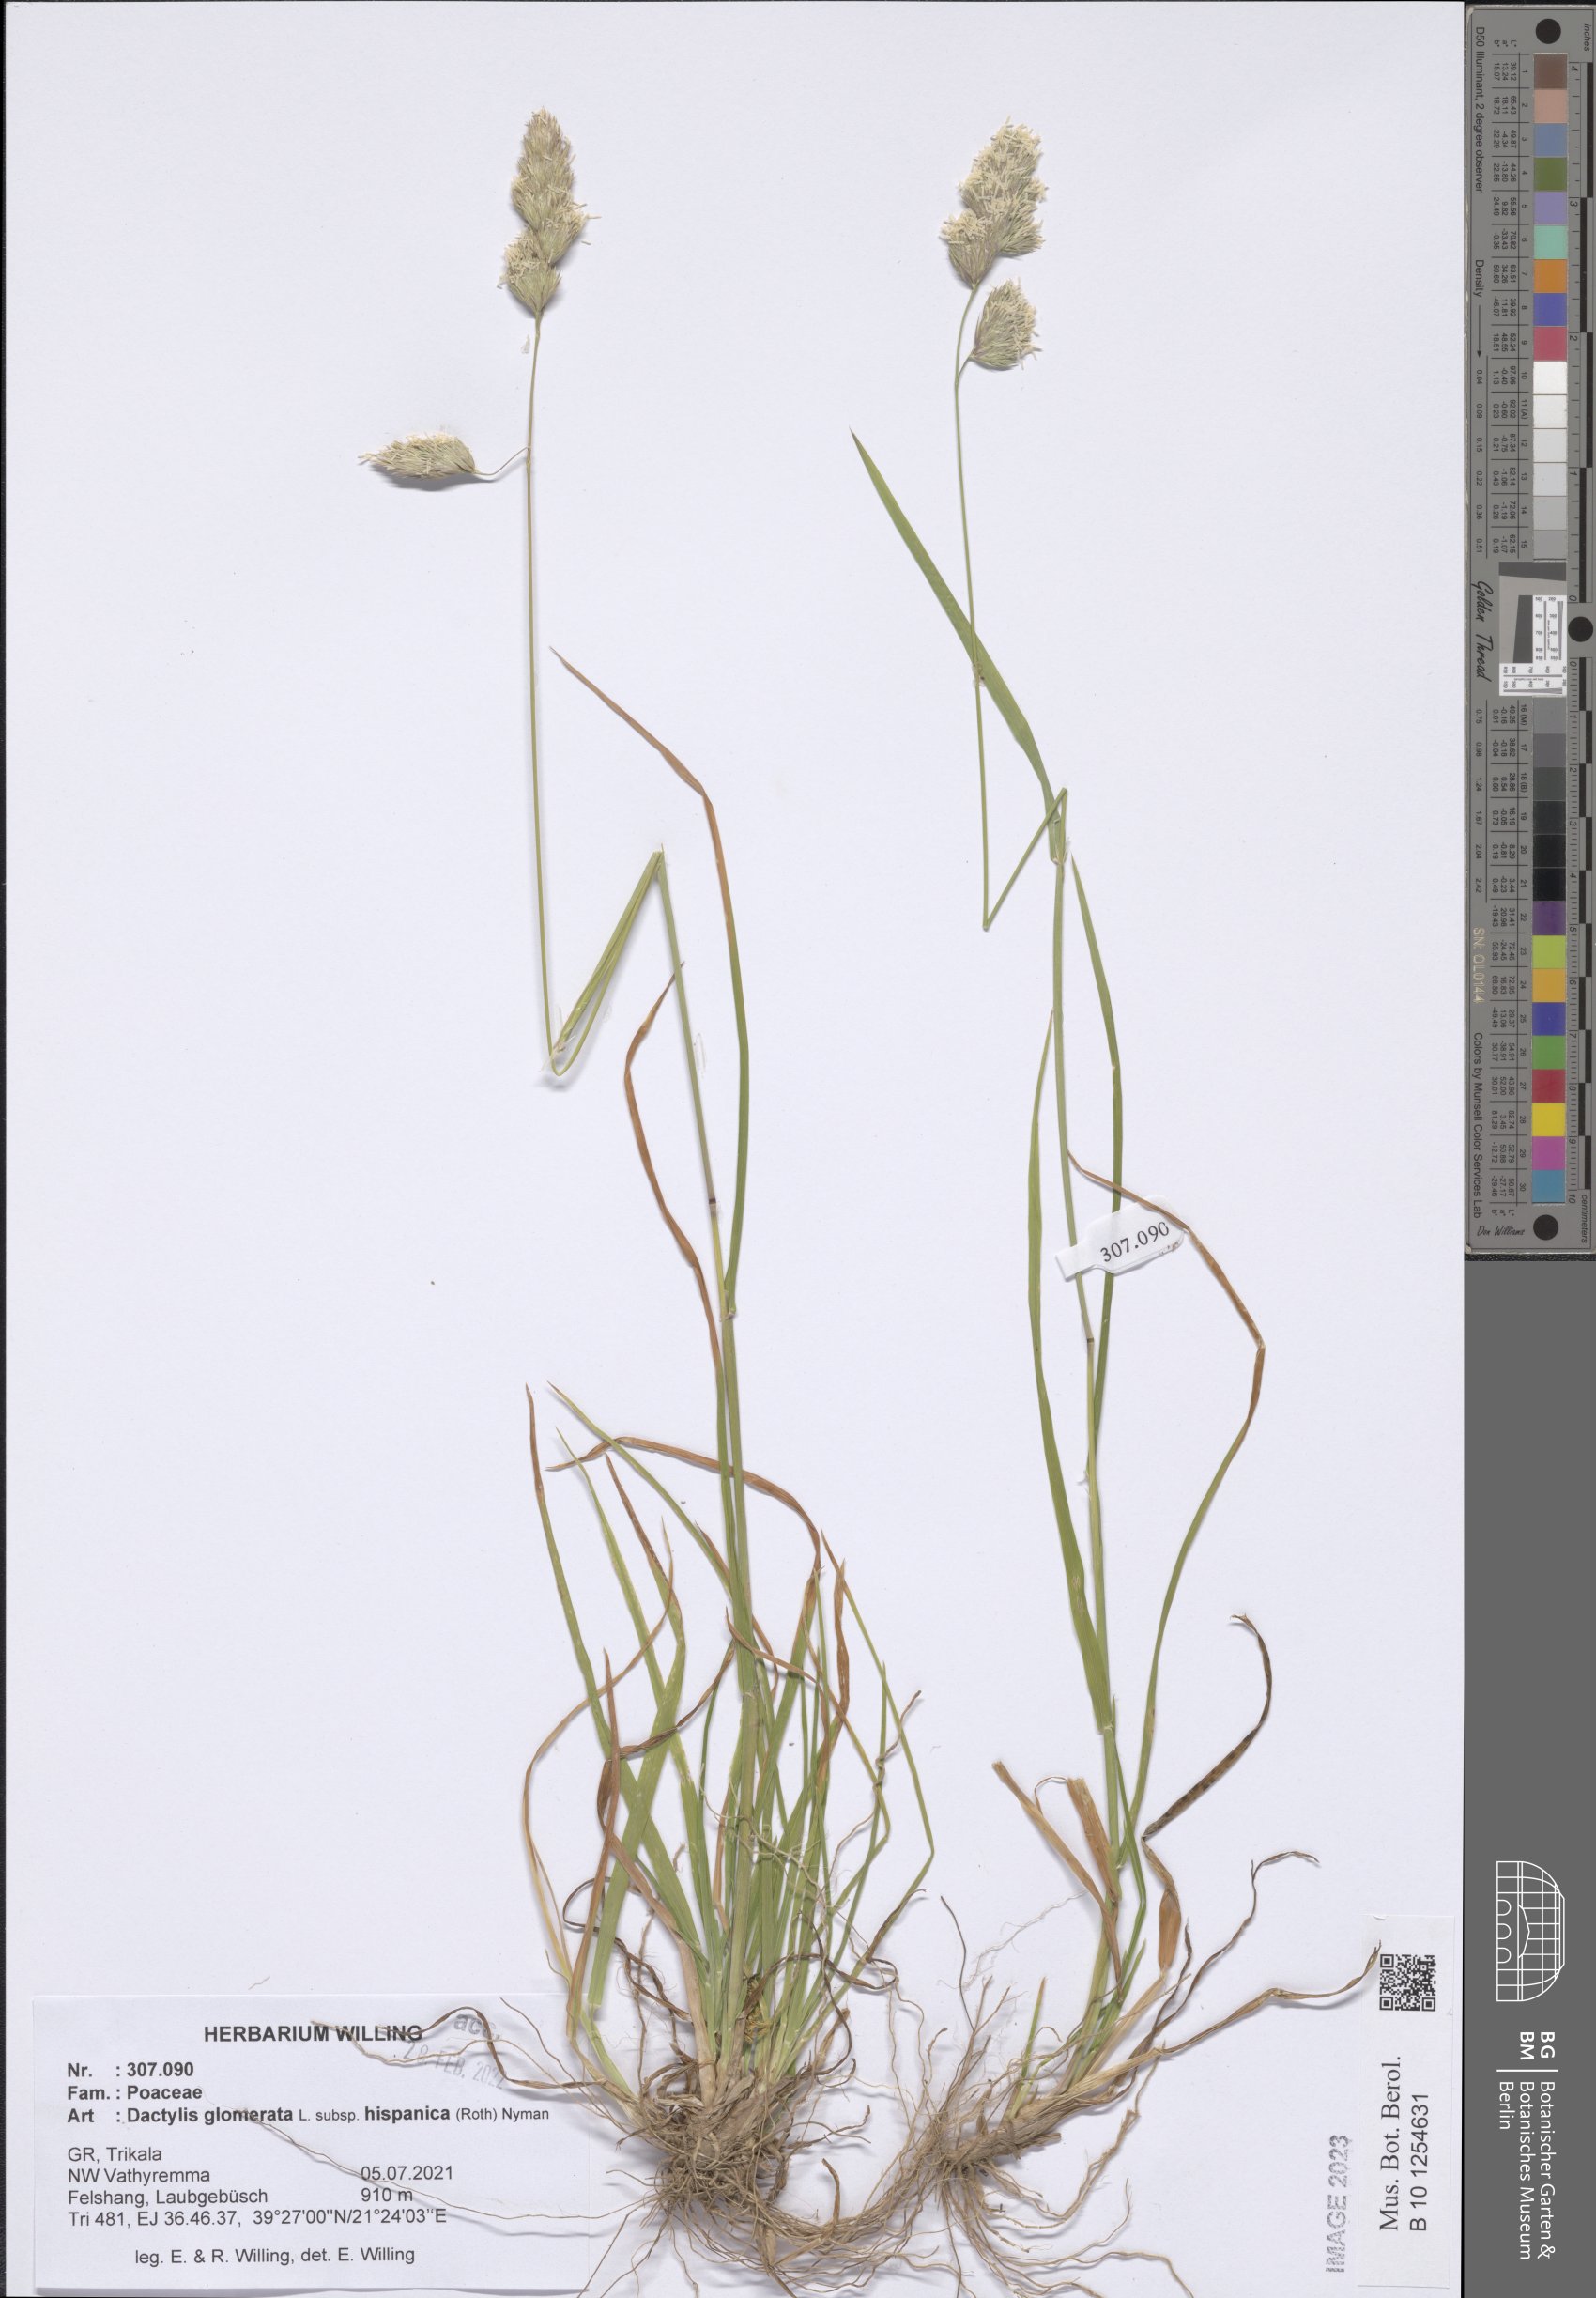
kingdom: Plantae
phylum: Tracheophyta
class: Liliopsida
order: Poales
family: Poaceae
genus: Dactylis
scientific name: Dactylis glomerata
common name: Orchardgrass
